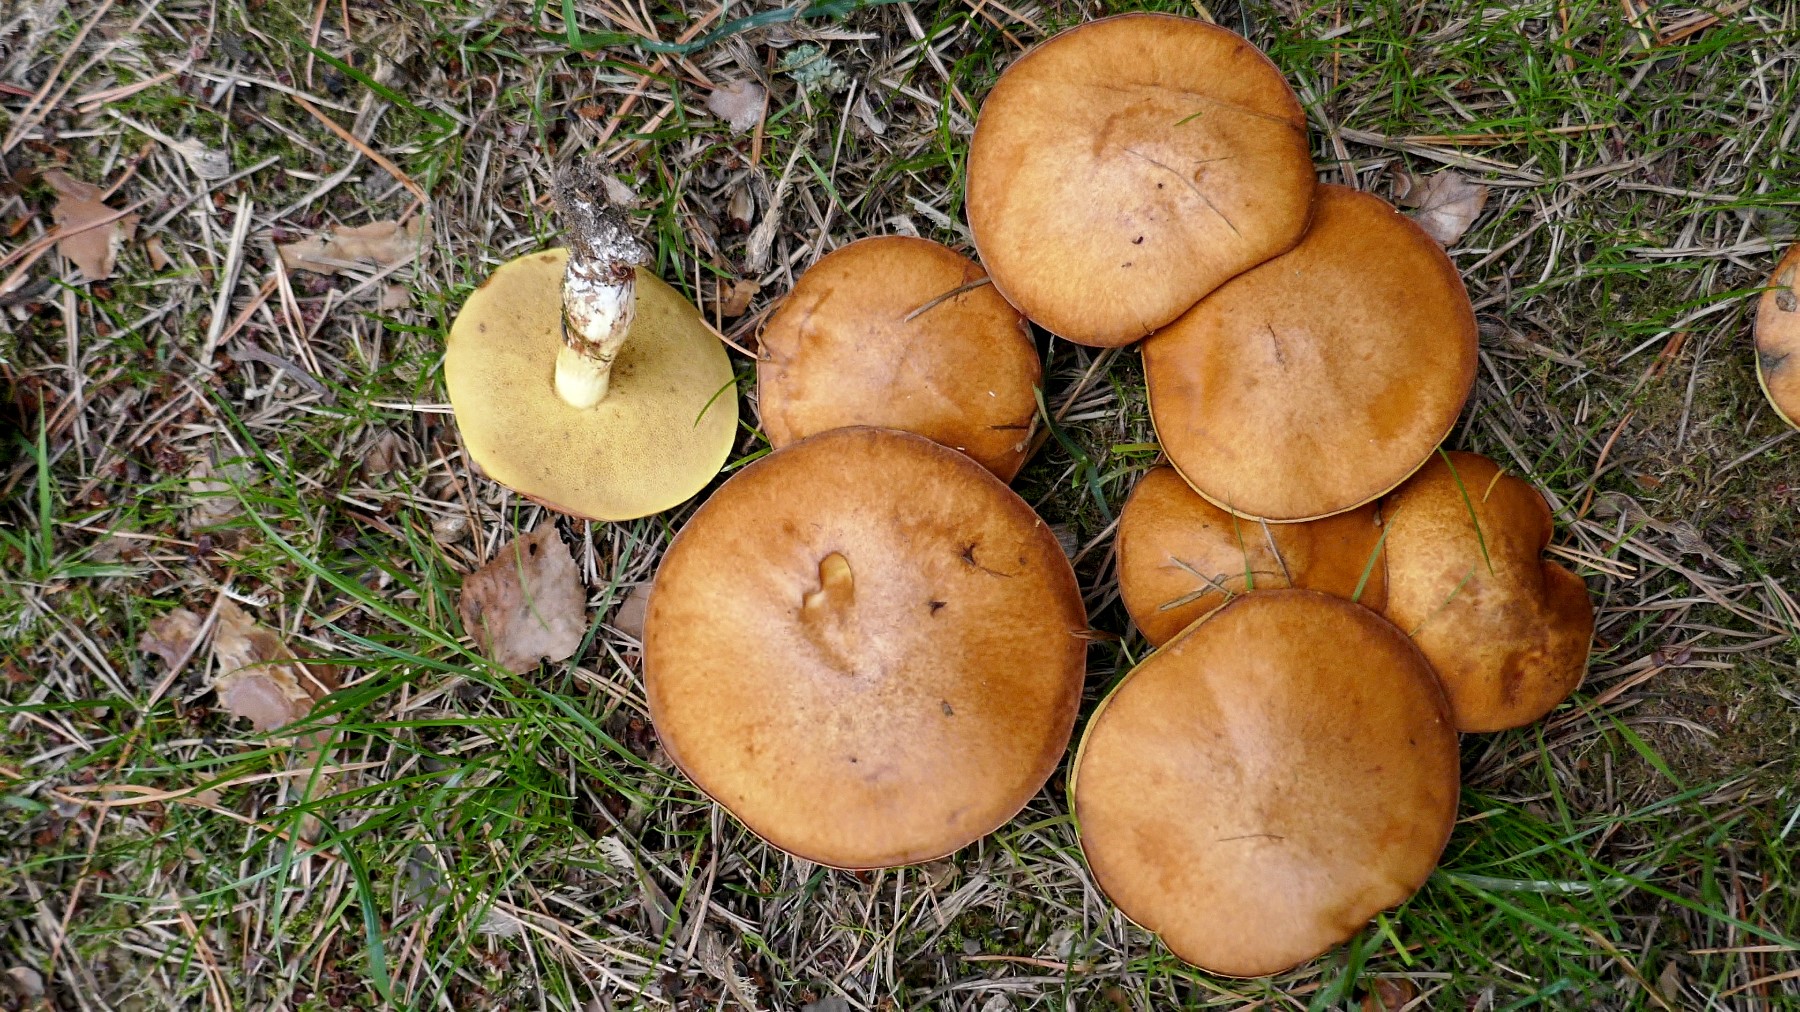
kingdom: Fungi
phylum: Basidiomycota
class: Agaricomycetes
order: Boletales
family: Suillaceae
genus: Suillus
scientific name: Suillus luteus
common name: brungul slimrørhat
